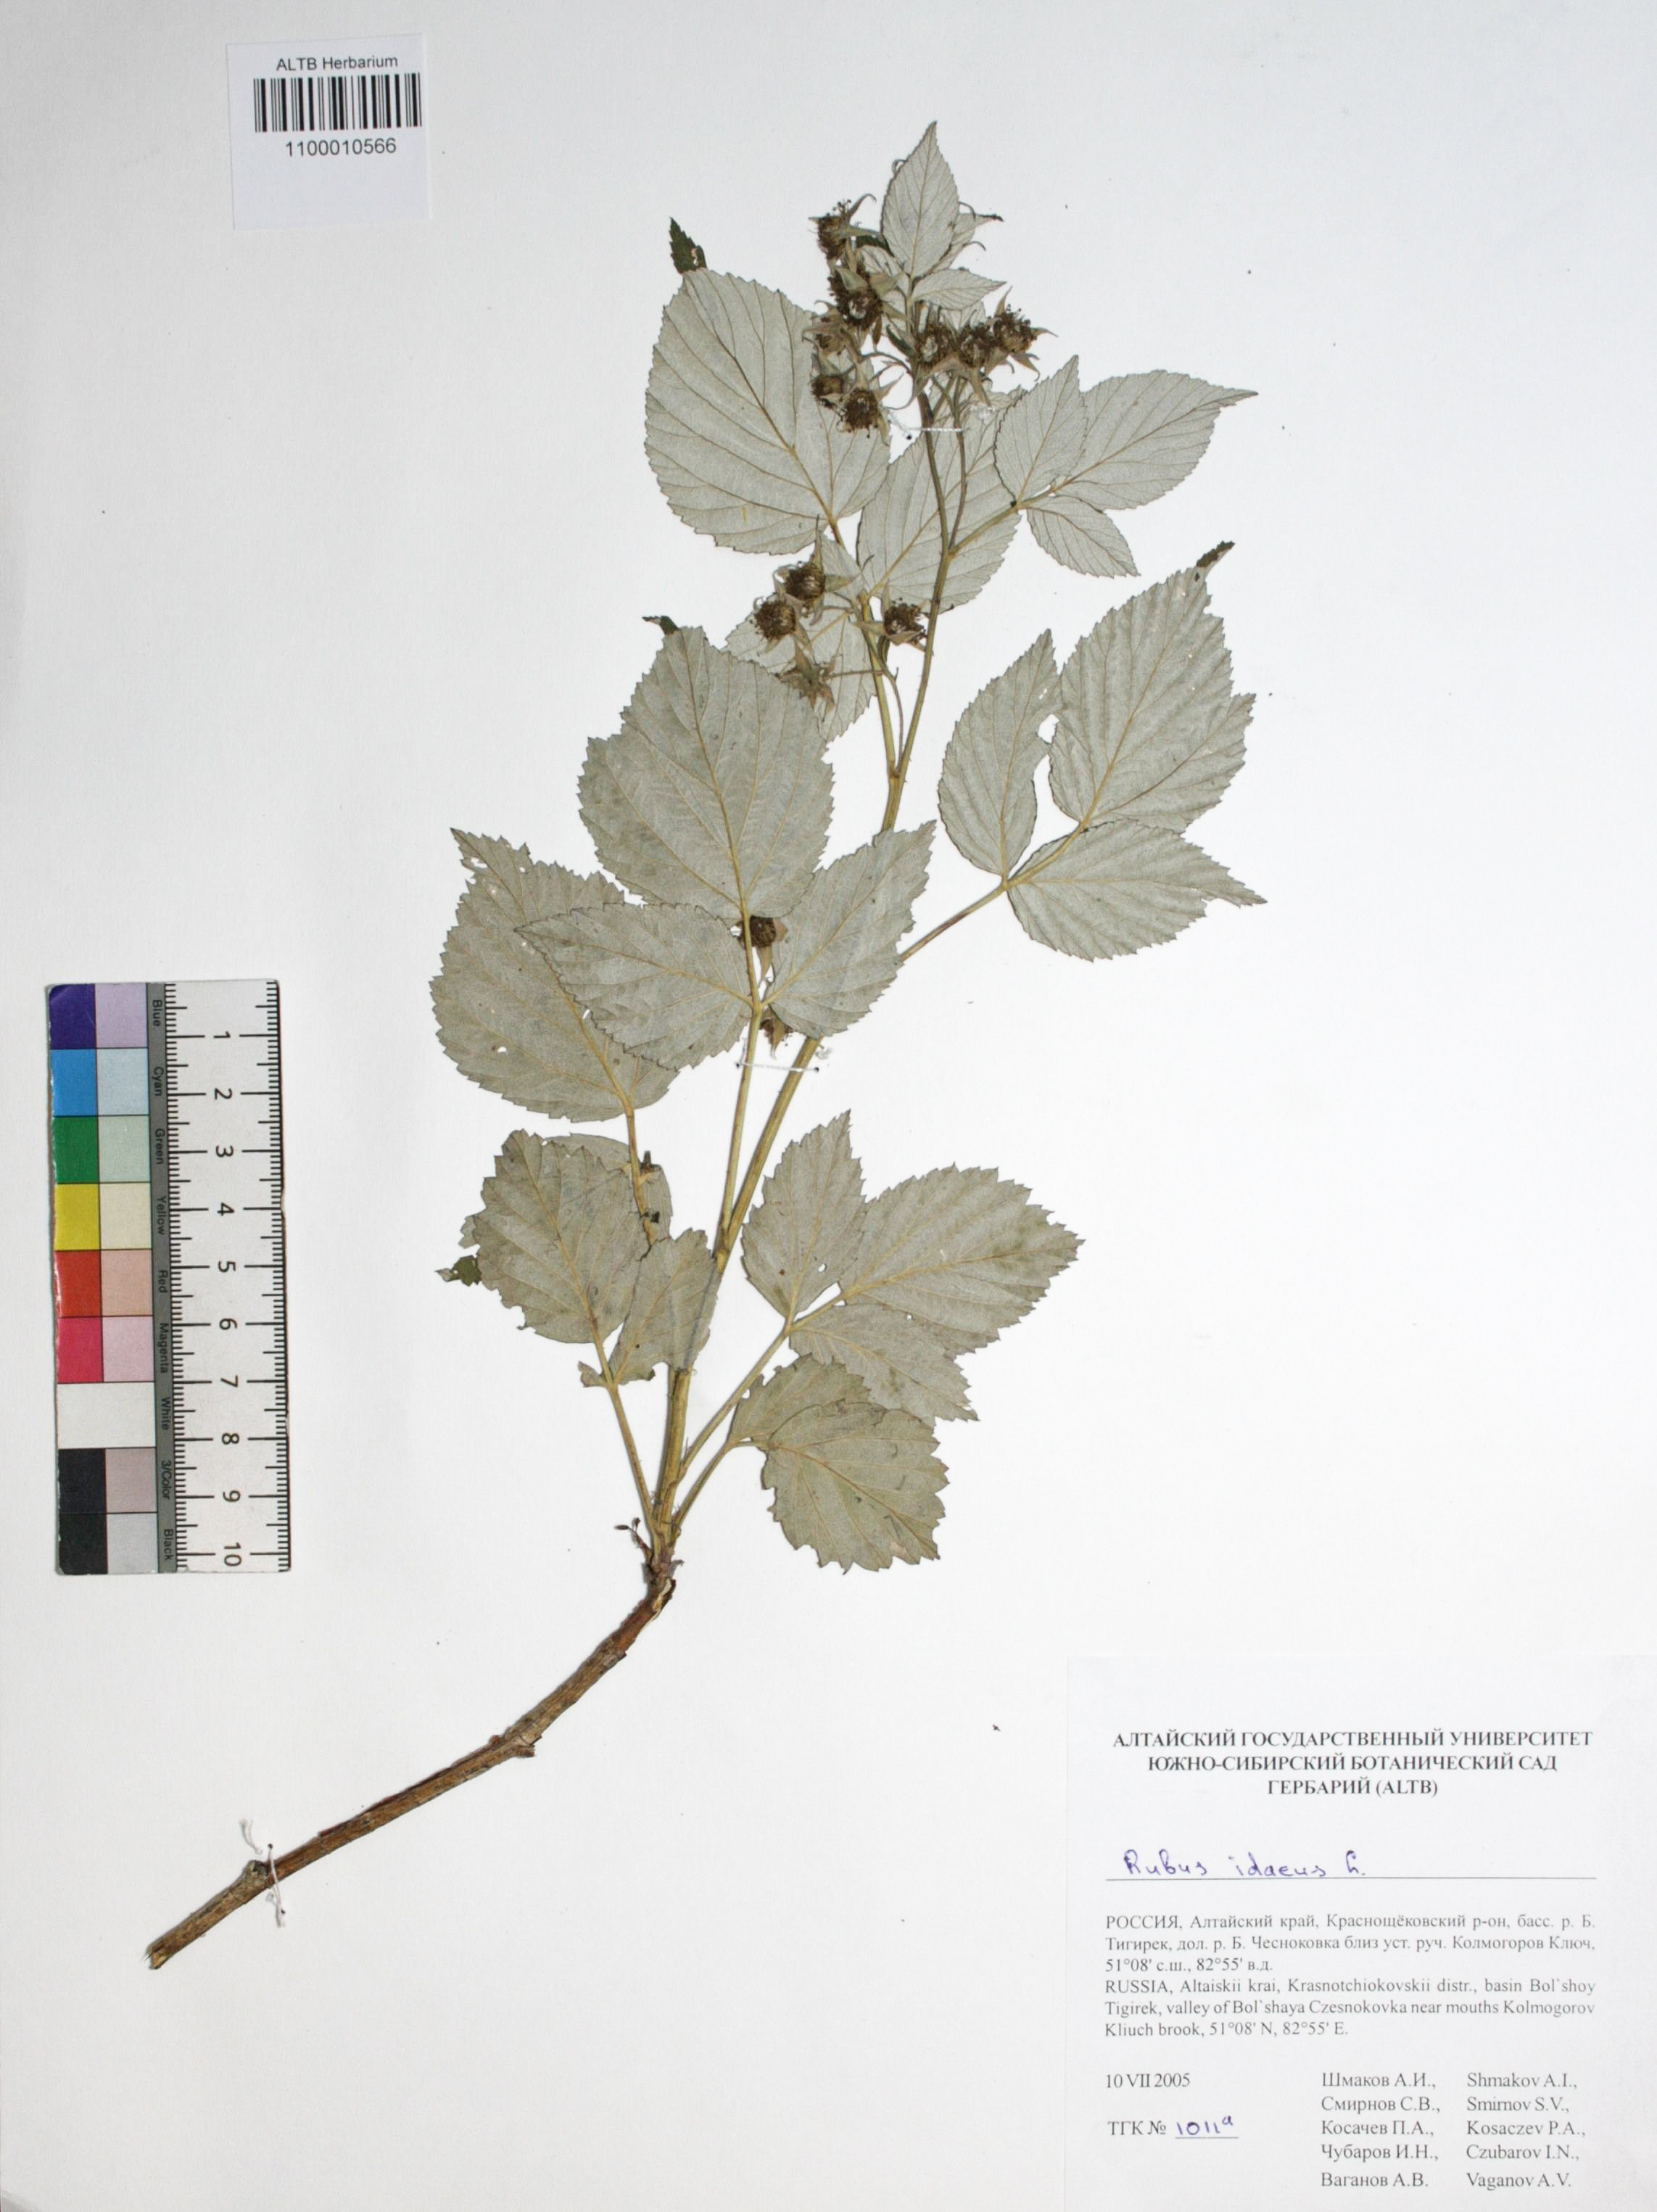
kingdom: Plantae
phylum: Tracheophyta
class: Magnoliopsida
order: Rosales
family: Rosaceae
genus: Rubus
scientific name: Rubus idaeus
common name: Raspberry
